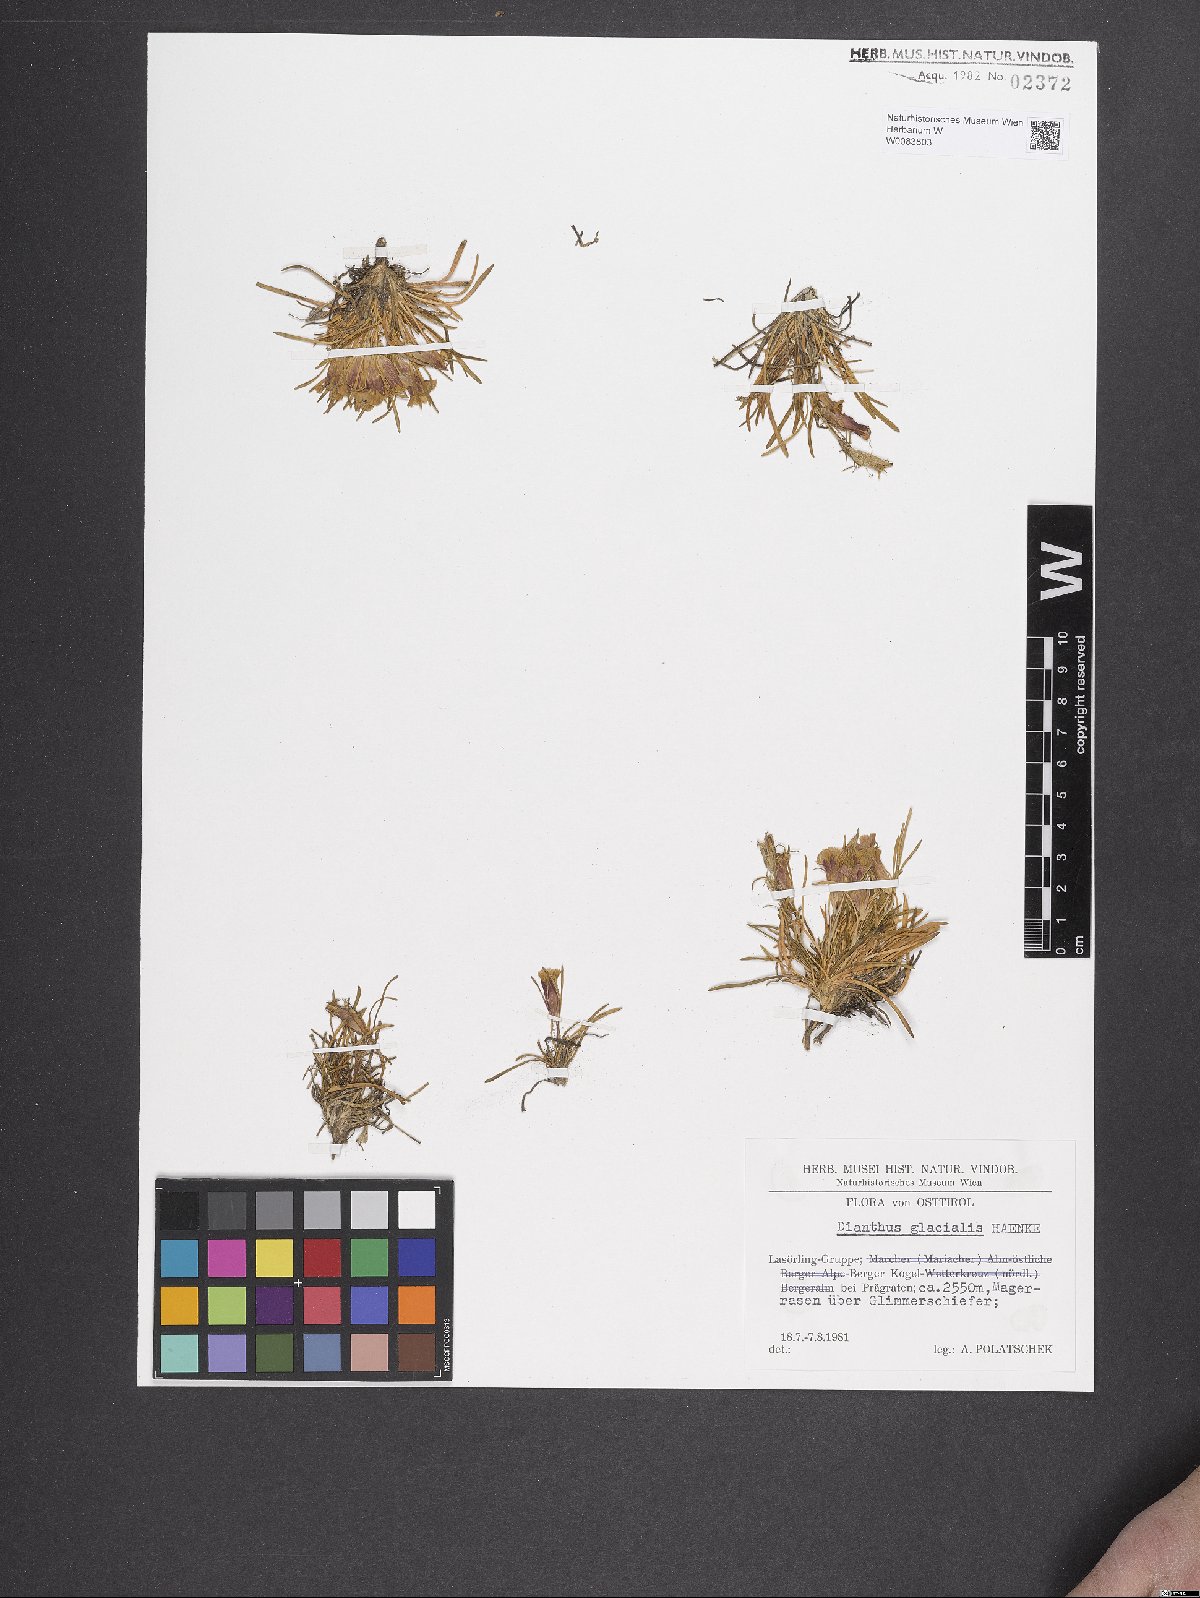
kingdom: Plantae
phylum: Tracheophyta
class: Magnoliopsida
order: Caryophyllales
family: Caryophyllaceae
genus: Dianthus
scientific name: Dianthus glacialis
